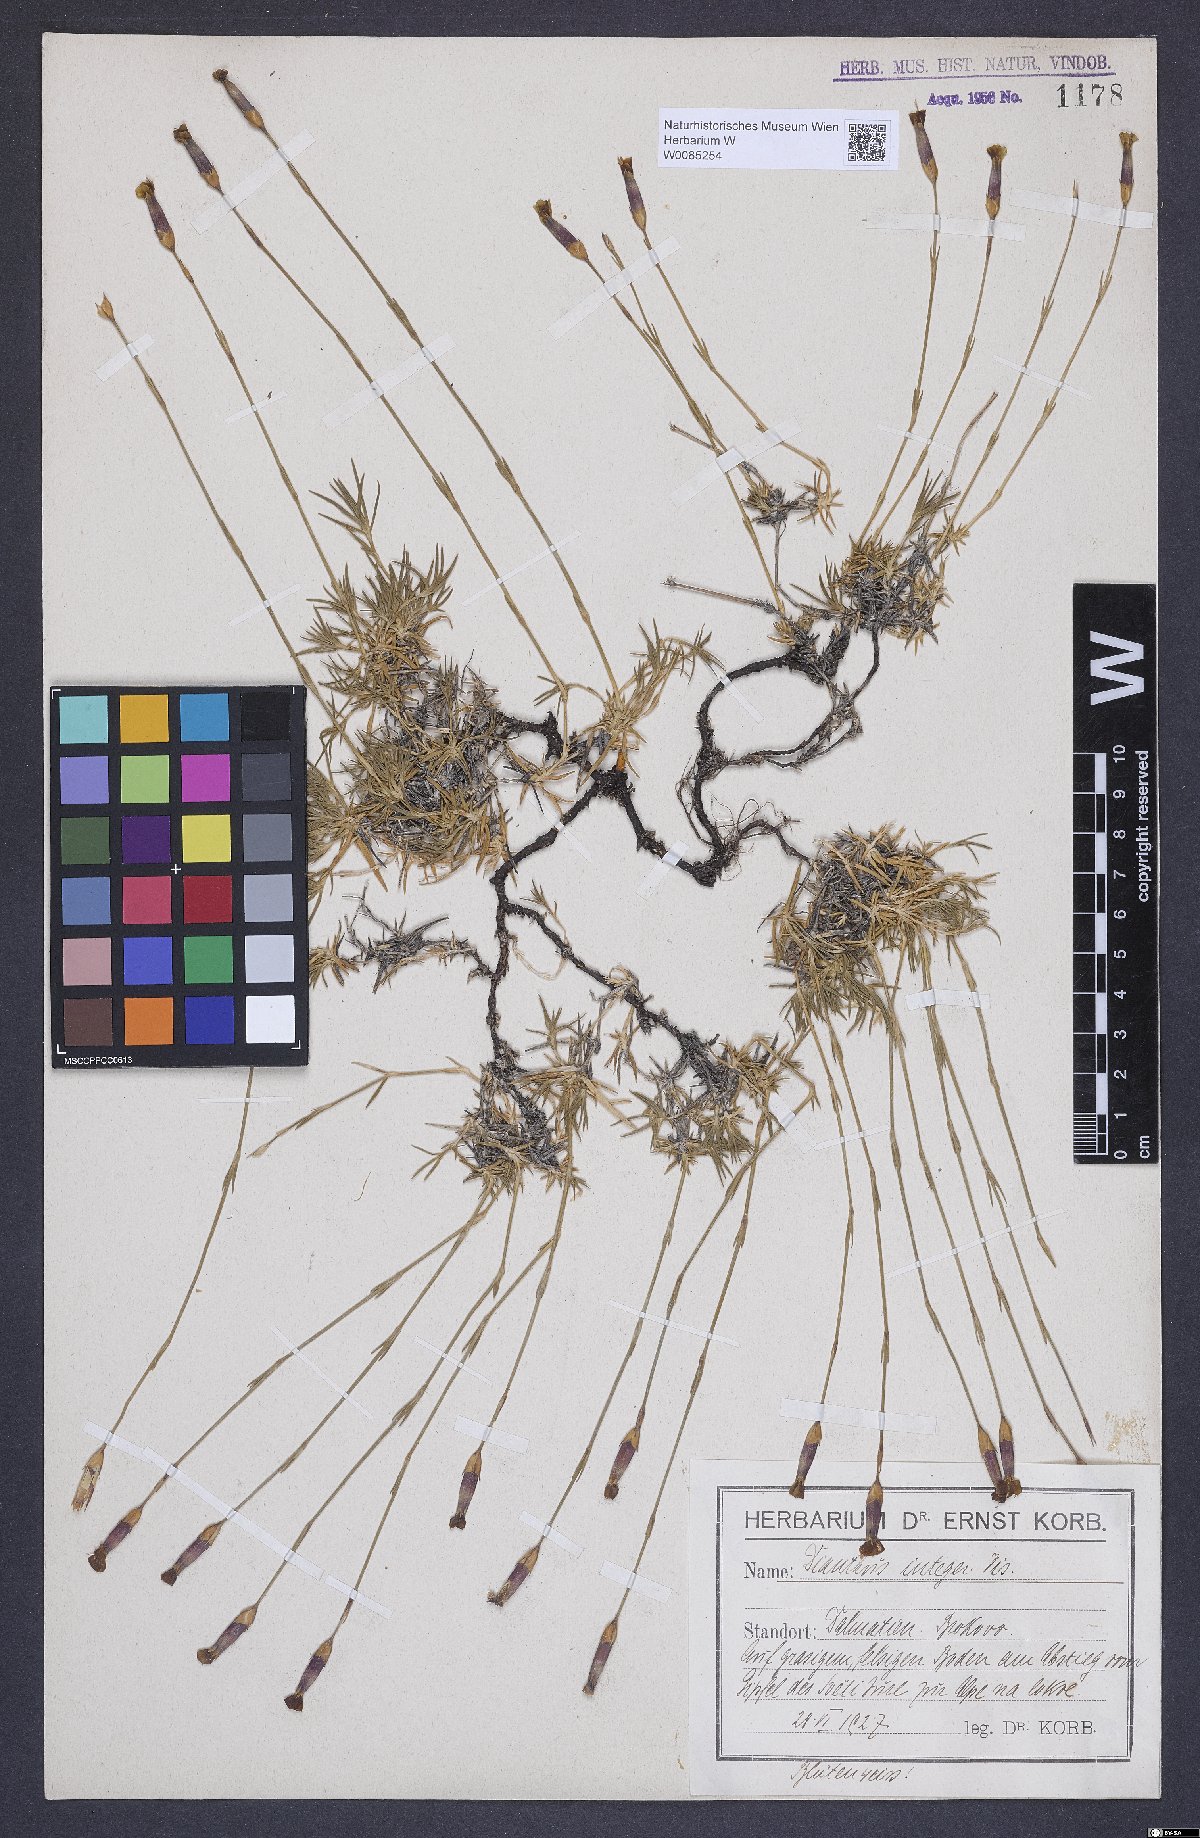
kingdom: Plantae
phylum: Tracheophyta
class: Magnoliopsida
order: Caryophyllales
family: Caryophyllaceae
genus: Dianthus
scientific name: Dianthus petraeus
